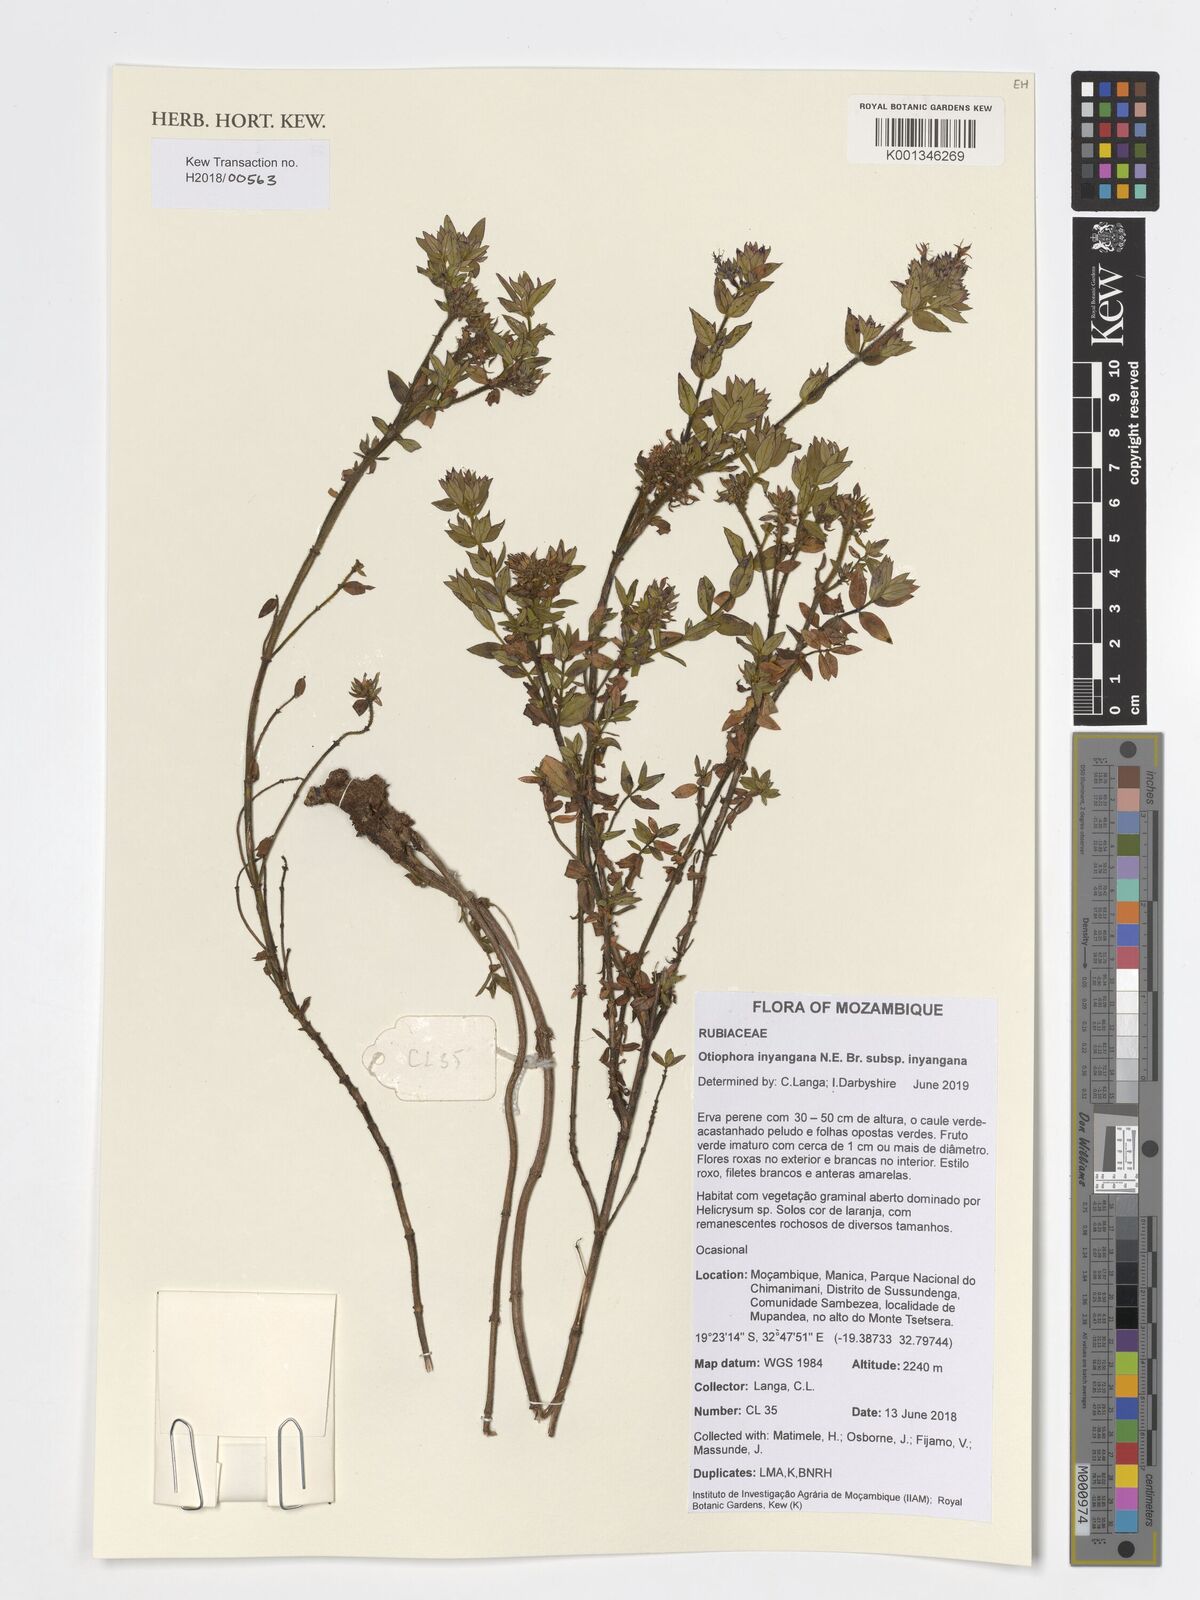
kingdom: Plantae
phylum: Tracheophyta
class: Magnoliopsida
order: Gentianales
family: Rubiaceae
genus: Otiophora
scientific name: Otiophora inyangana
